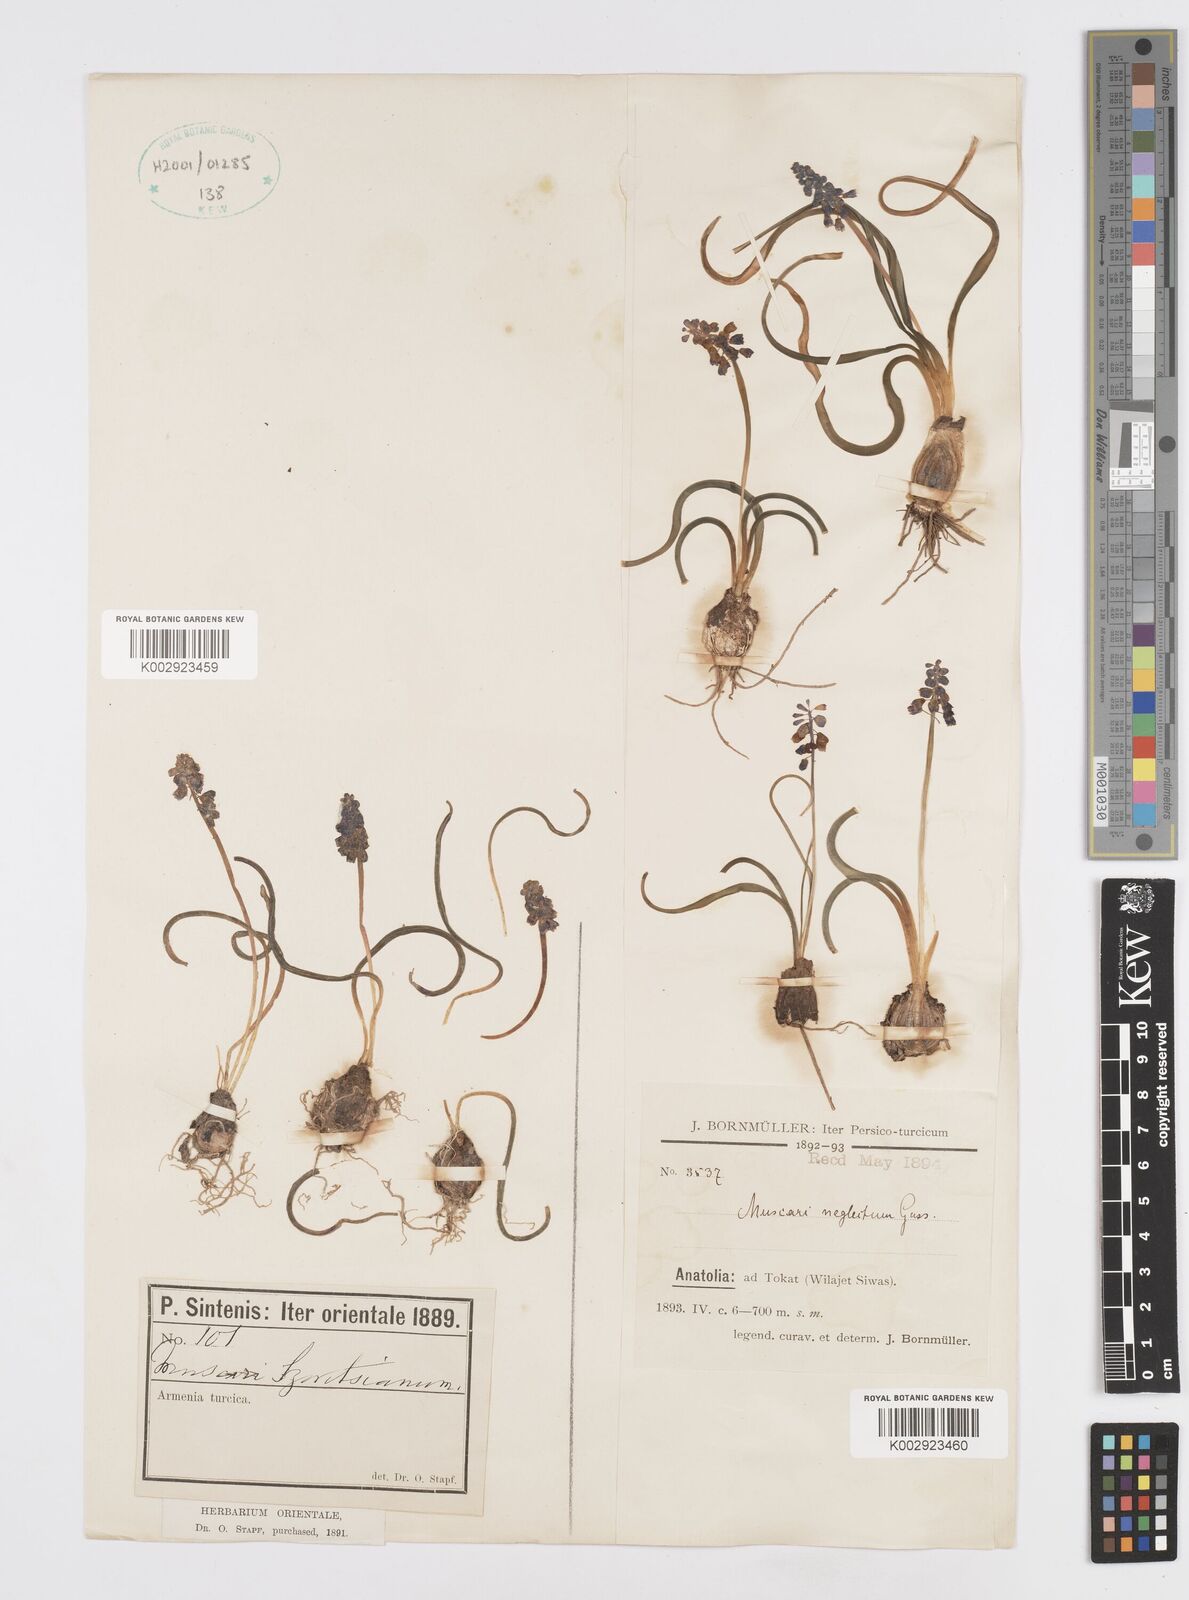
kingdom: Plantae
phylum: Tracheophyta
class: Liliopsida
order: Asparagales
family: Asparagaceae
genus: Muscari
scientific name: Muscari neglectum
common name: Grape-hyacinth
